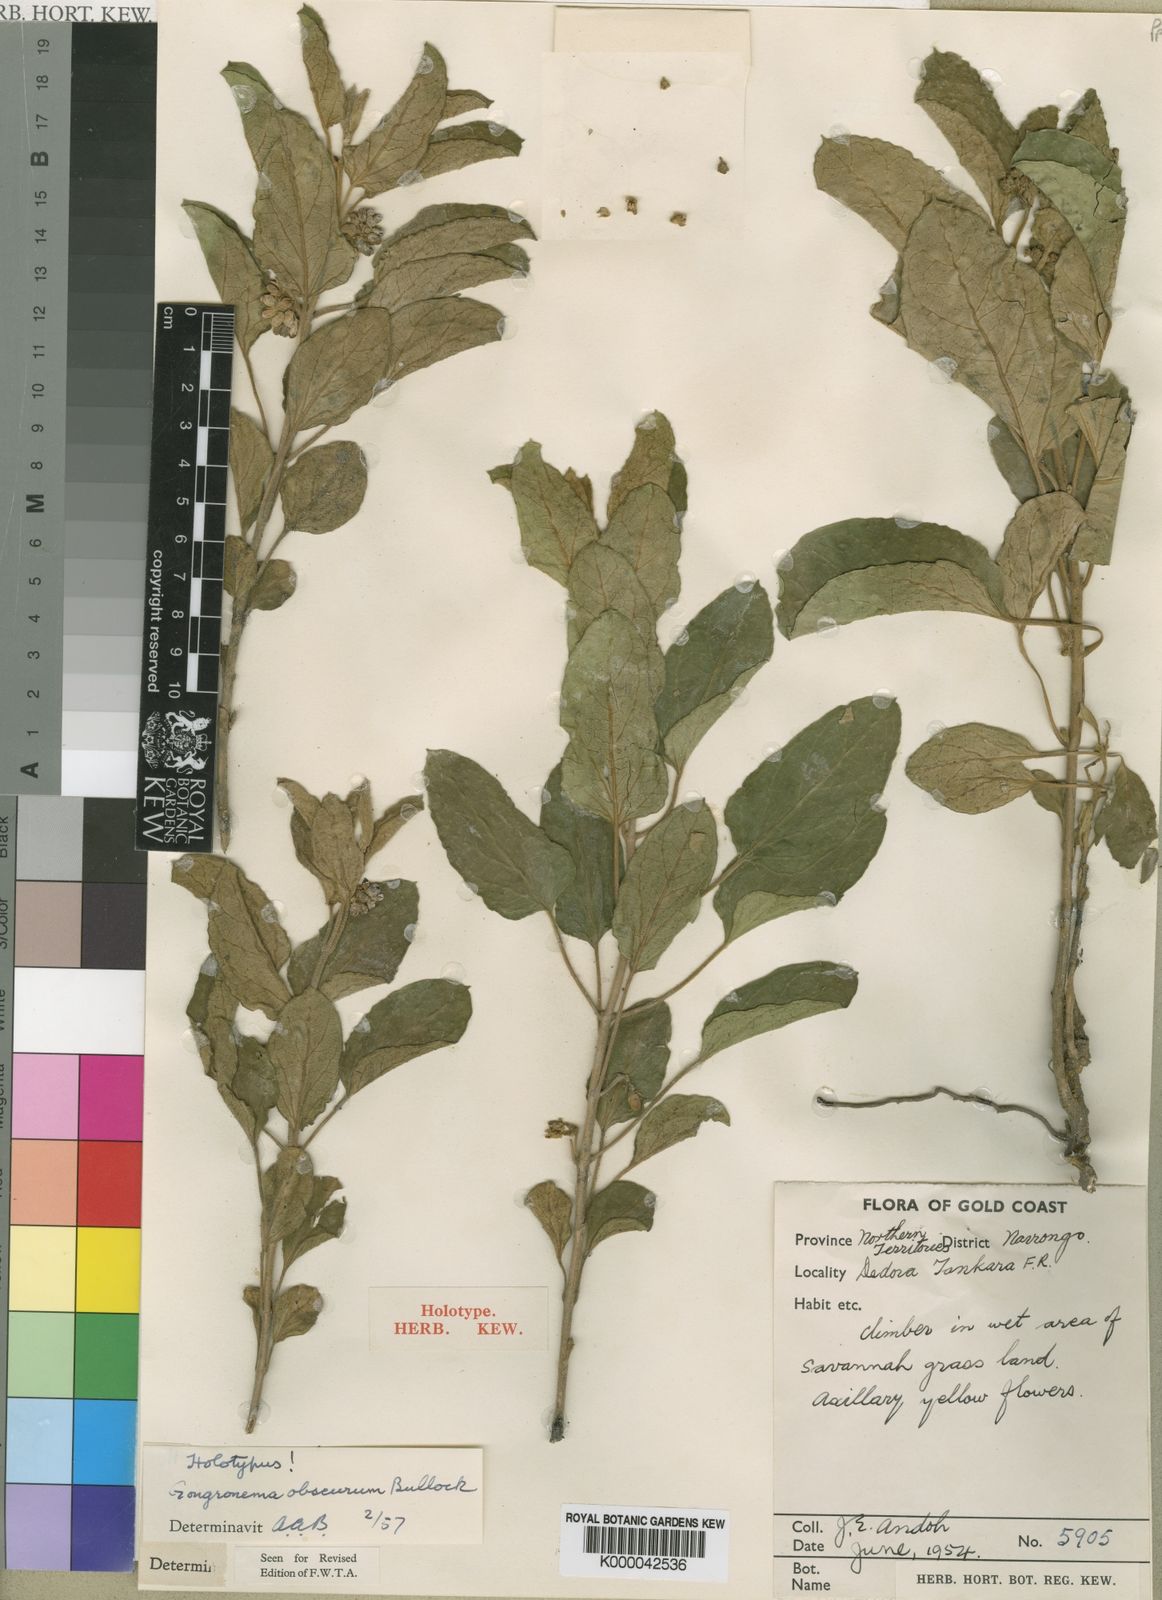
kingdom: Plantae
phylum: Tracheophyta
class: Magnoliopsida
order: Gentianales
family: Apocynaceae
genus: Gongronemopsis
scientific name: Gongronemopsis obscura
